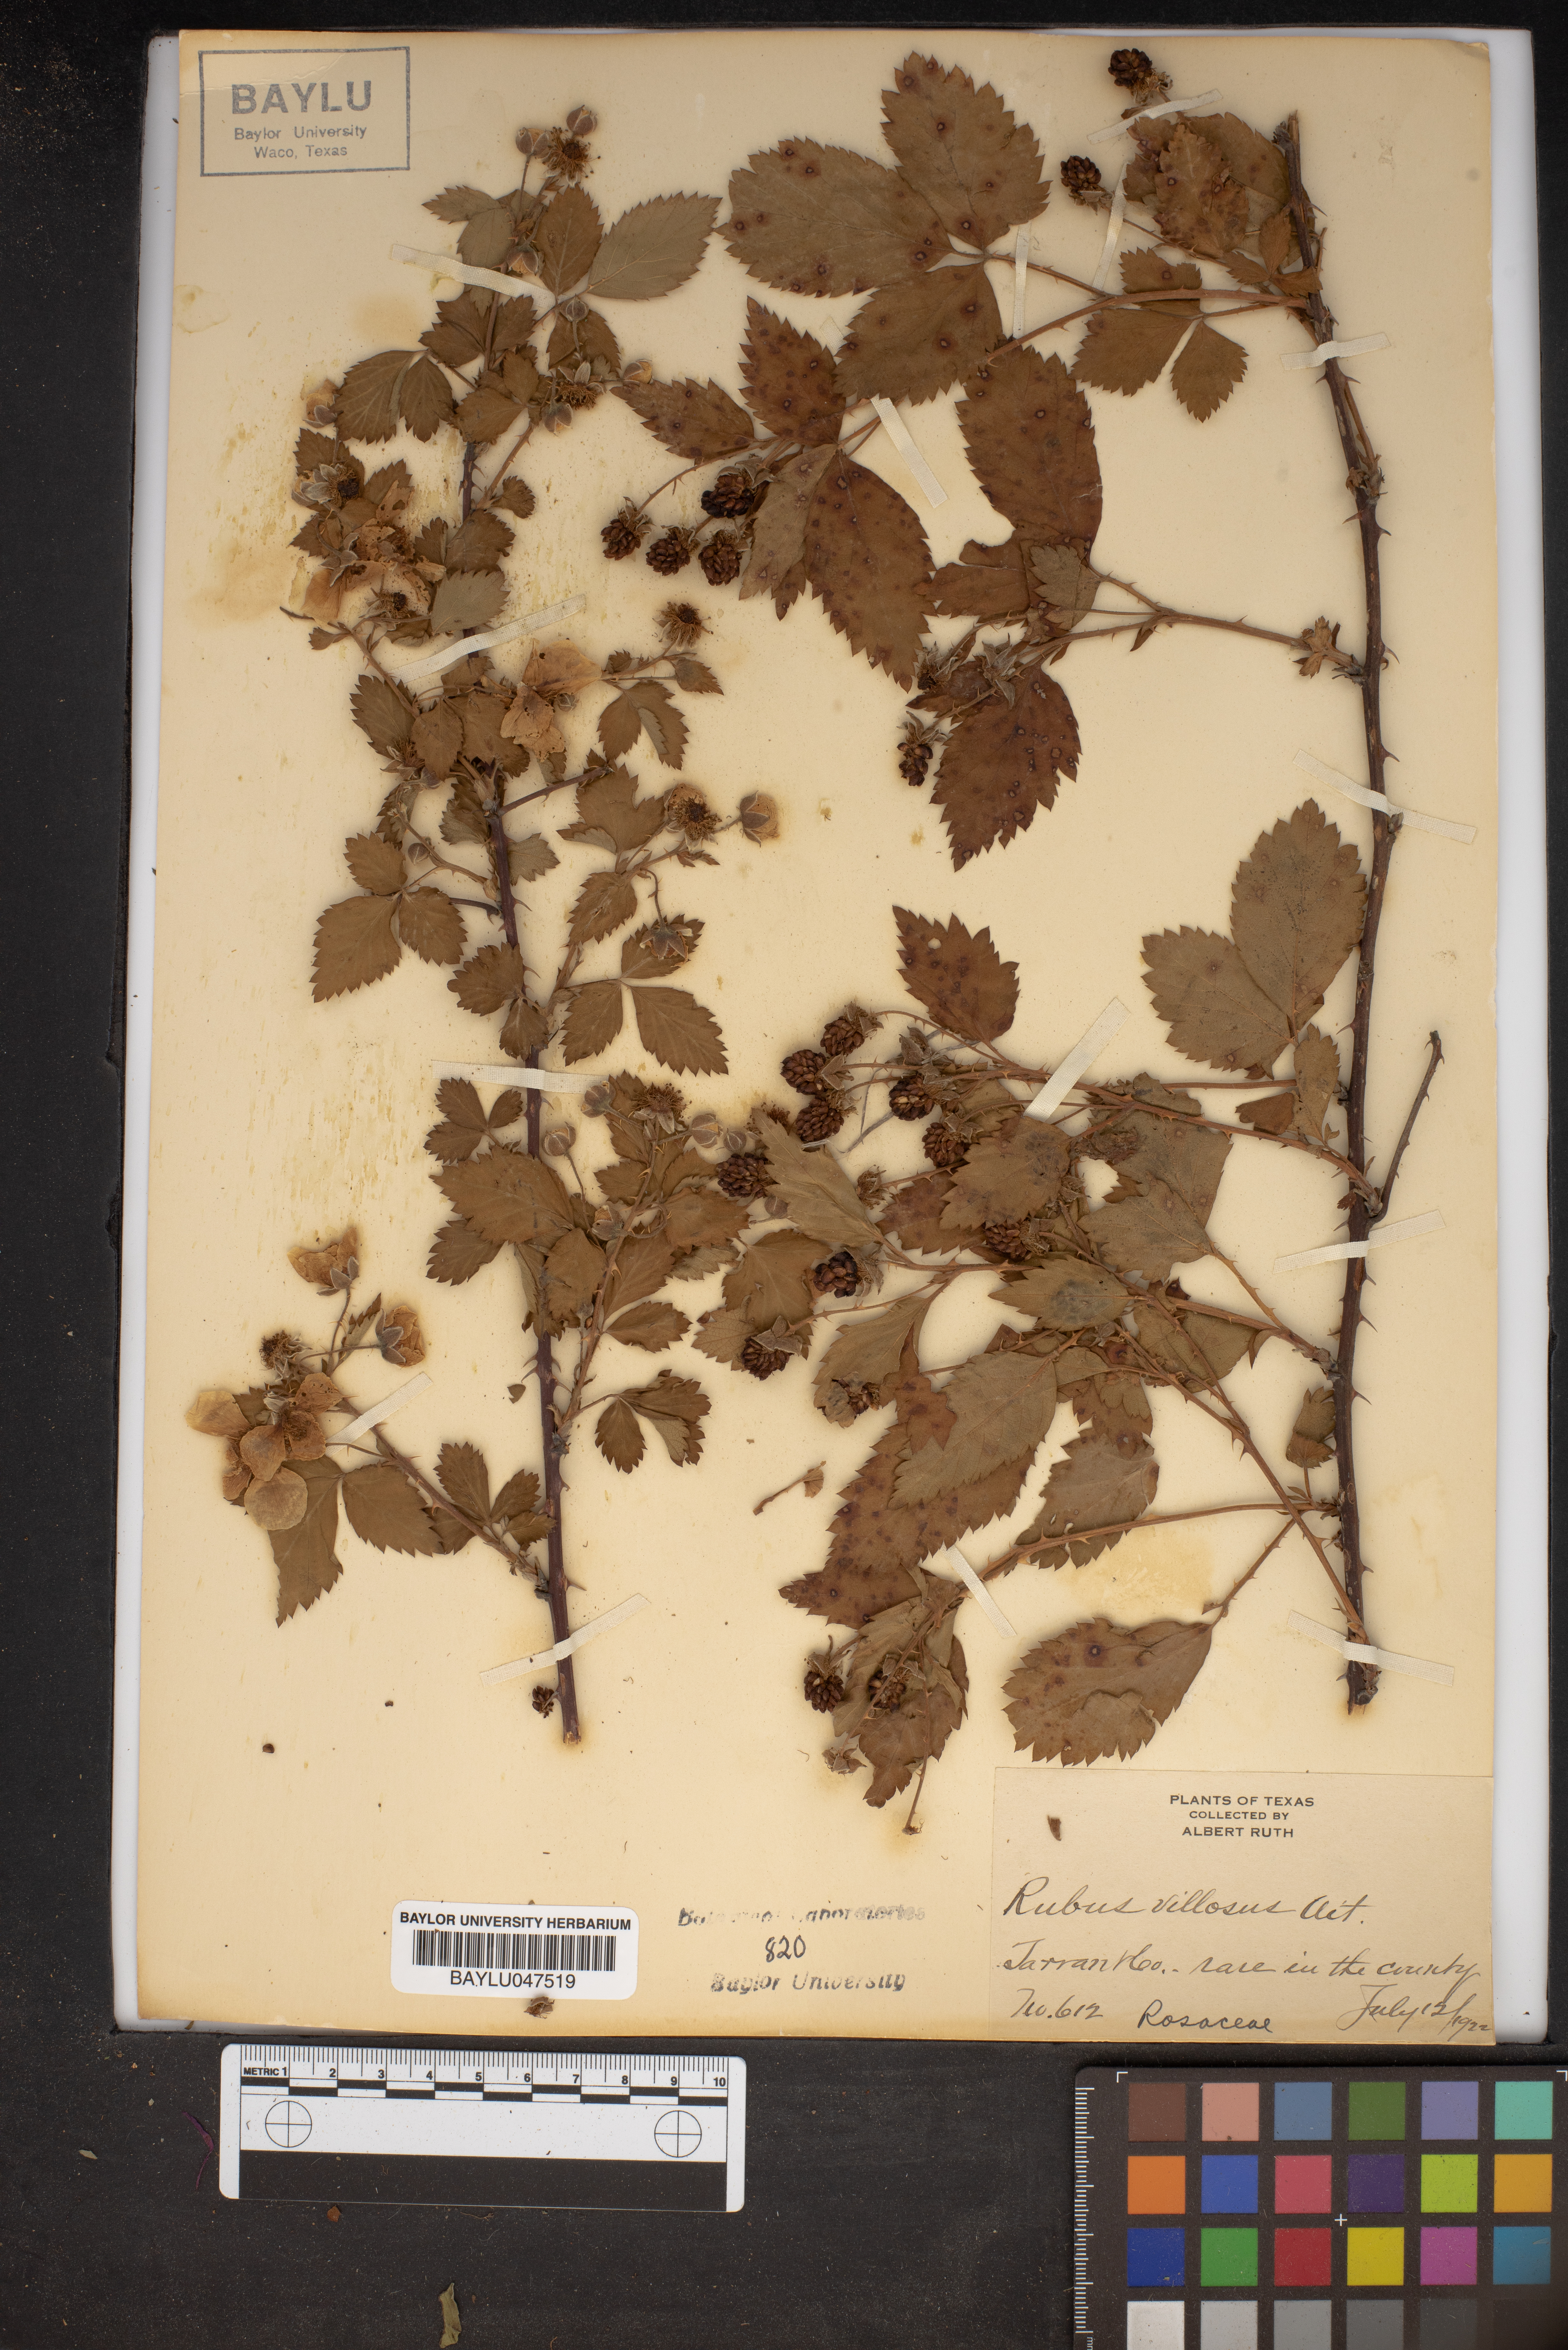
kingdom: Plantae
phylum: Tracheophyta
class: Magnoliopsida
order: Rosales
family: Rosaceae
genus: Rubus
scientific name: Rubus serratus
